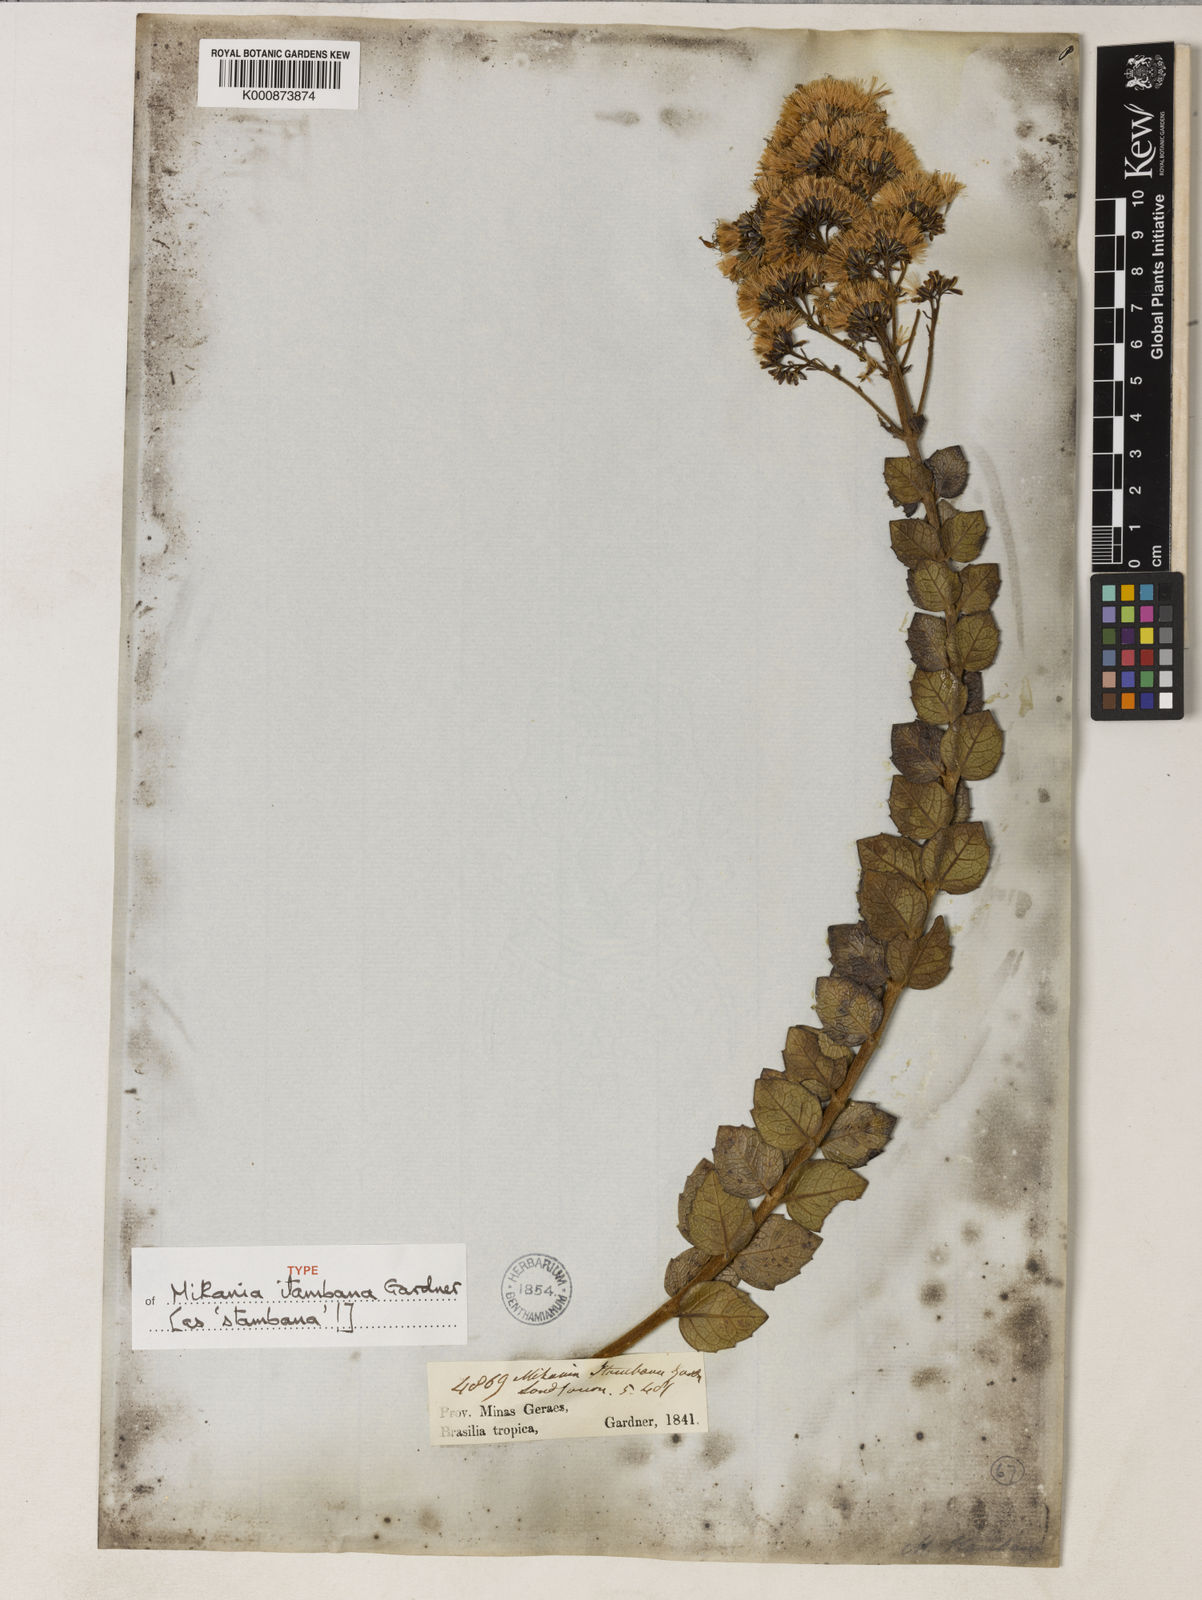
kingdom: Plantae
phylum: Tracheophyta
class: Magnoliopsida
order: Asterales
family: Asteraceae
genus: Mikania
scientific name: Mikania itambana
